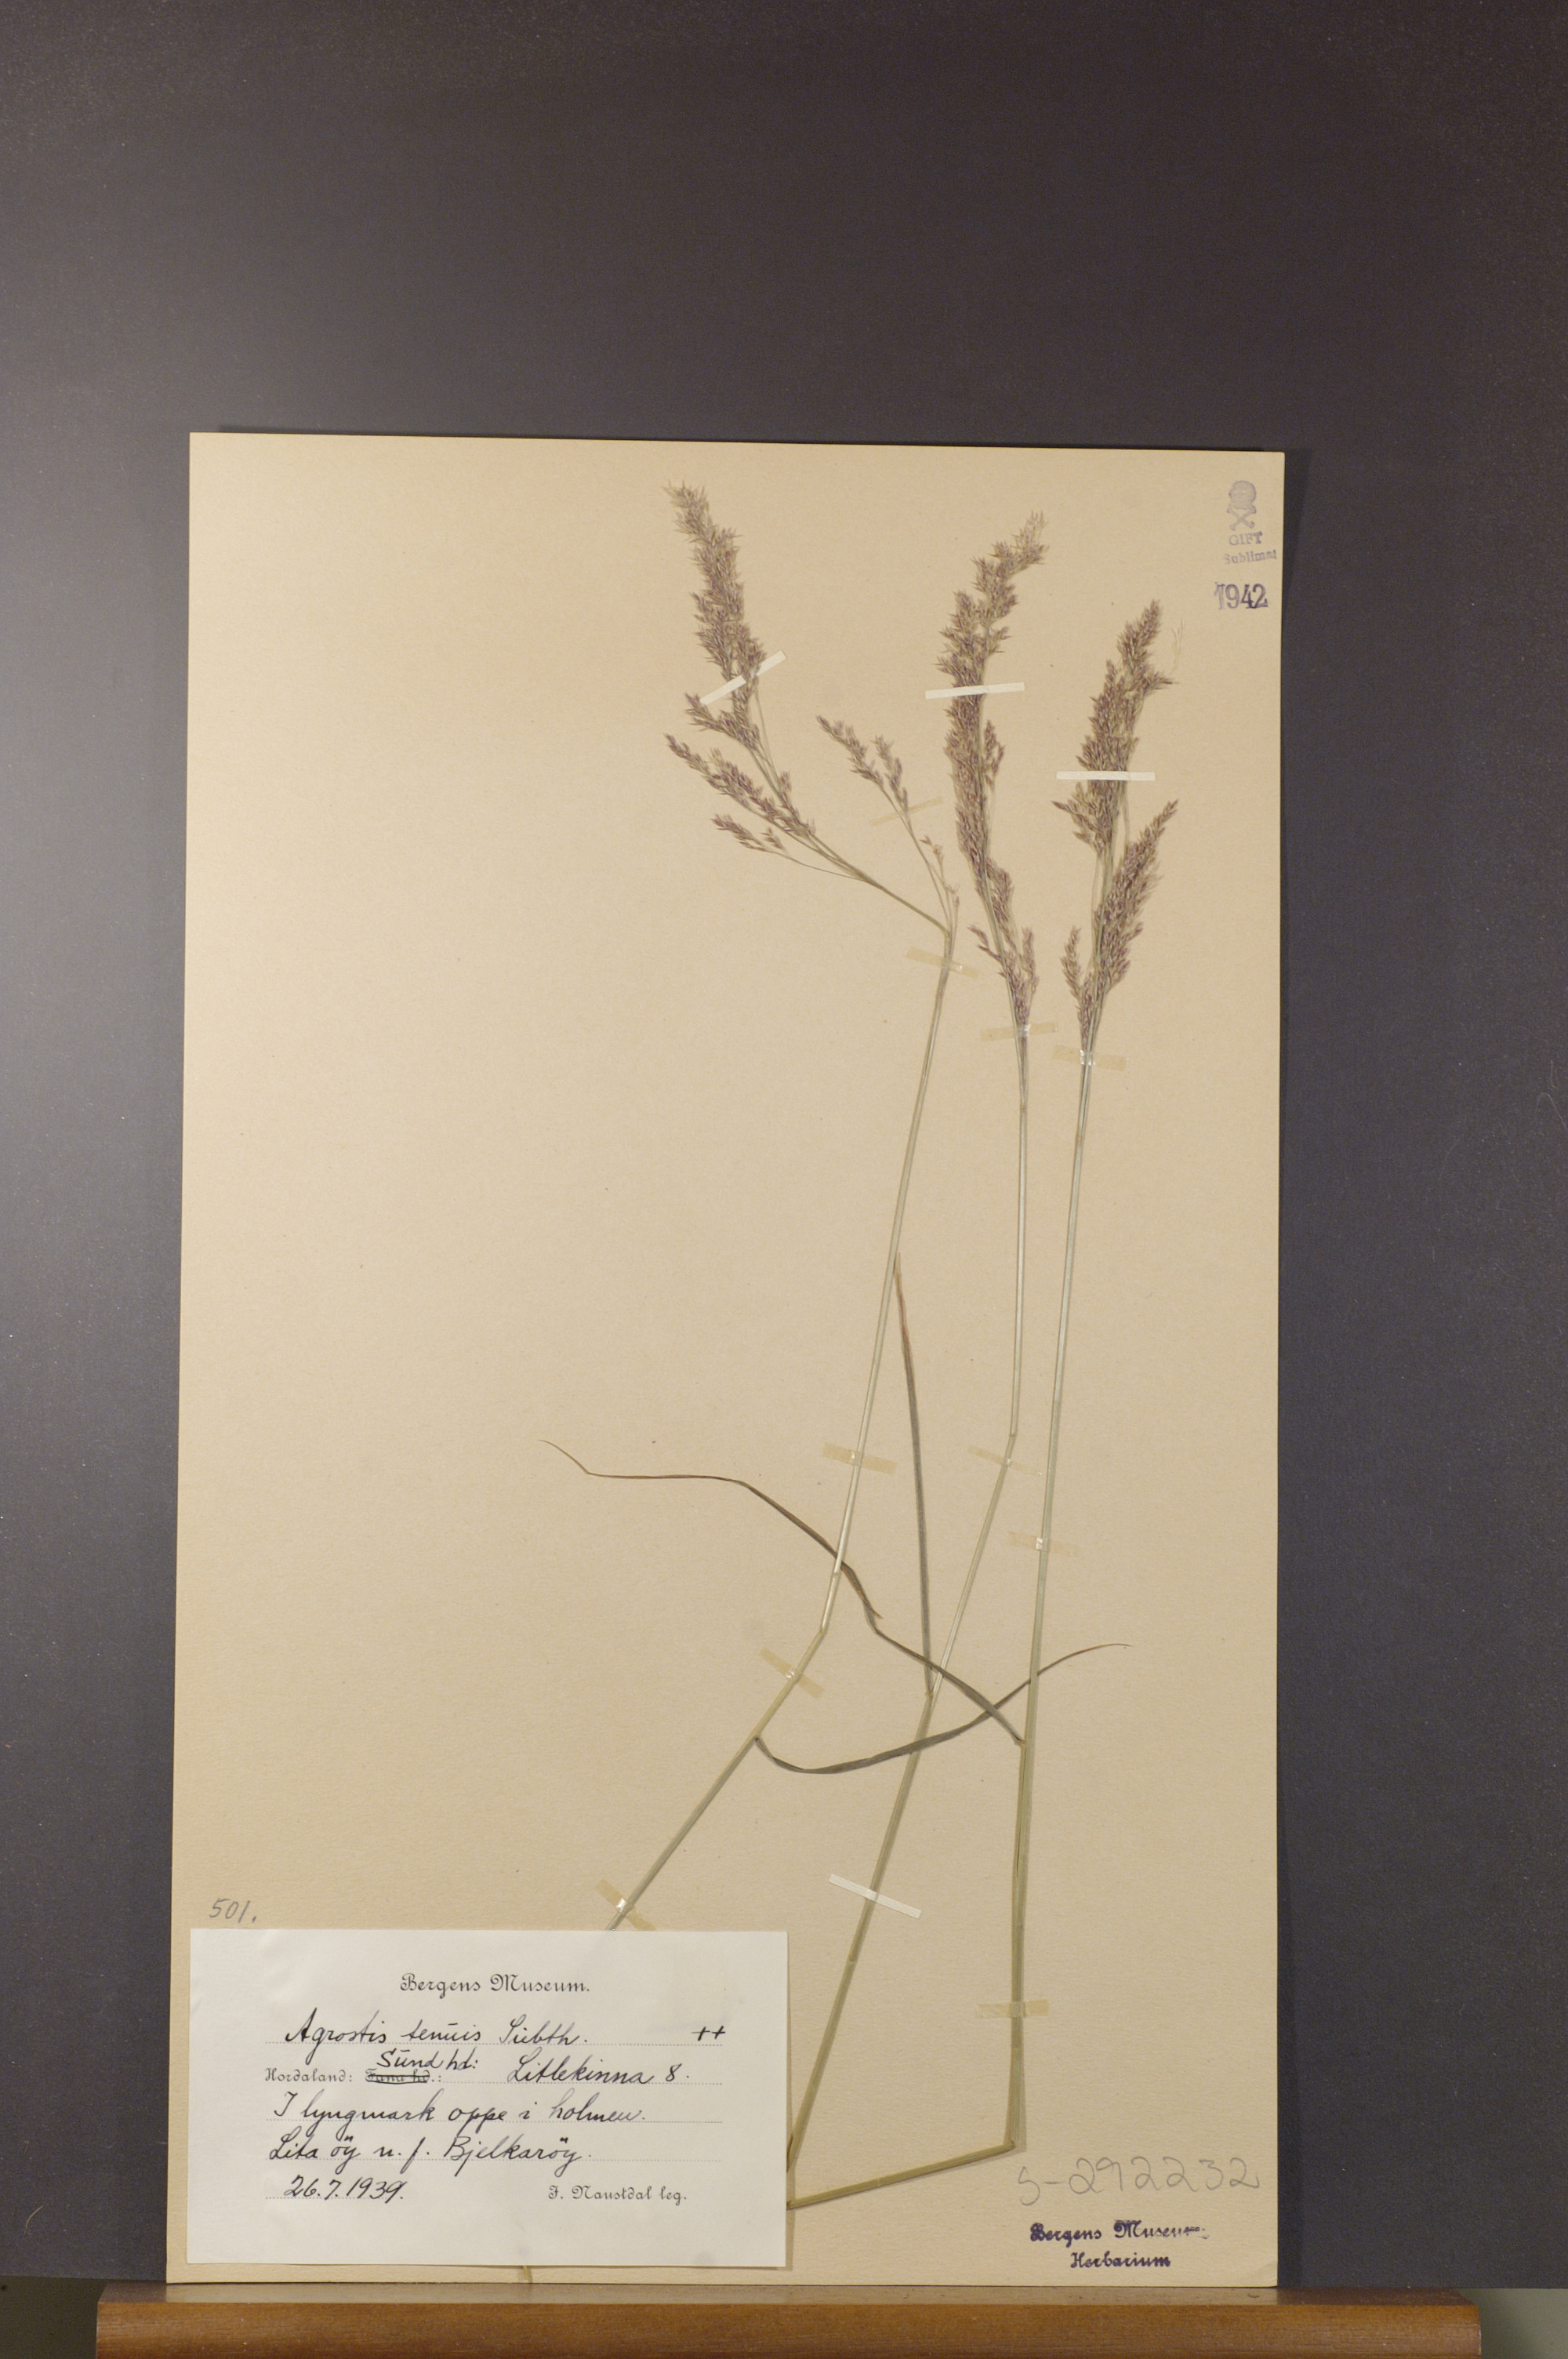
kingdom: Plantae
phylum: Tracheophyta
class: Liliopsida
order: Poales
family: Poaceae
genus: Agrostis
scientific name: Agrostis capillaris
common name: Colonial bentgrass
